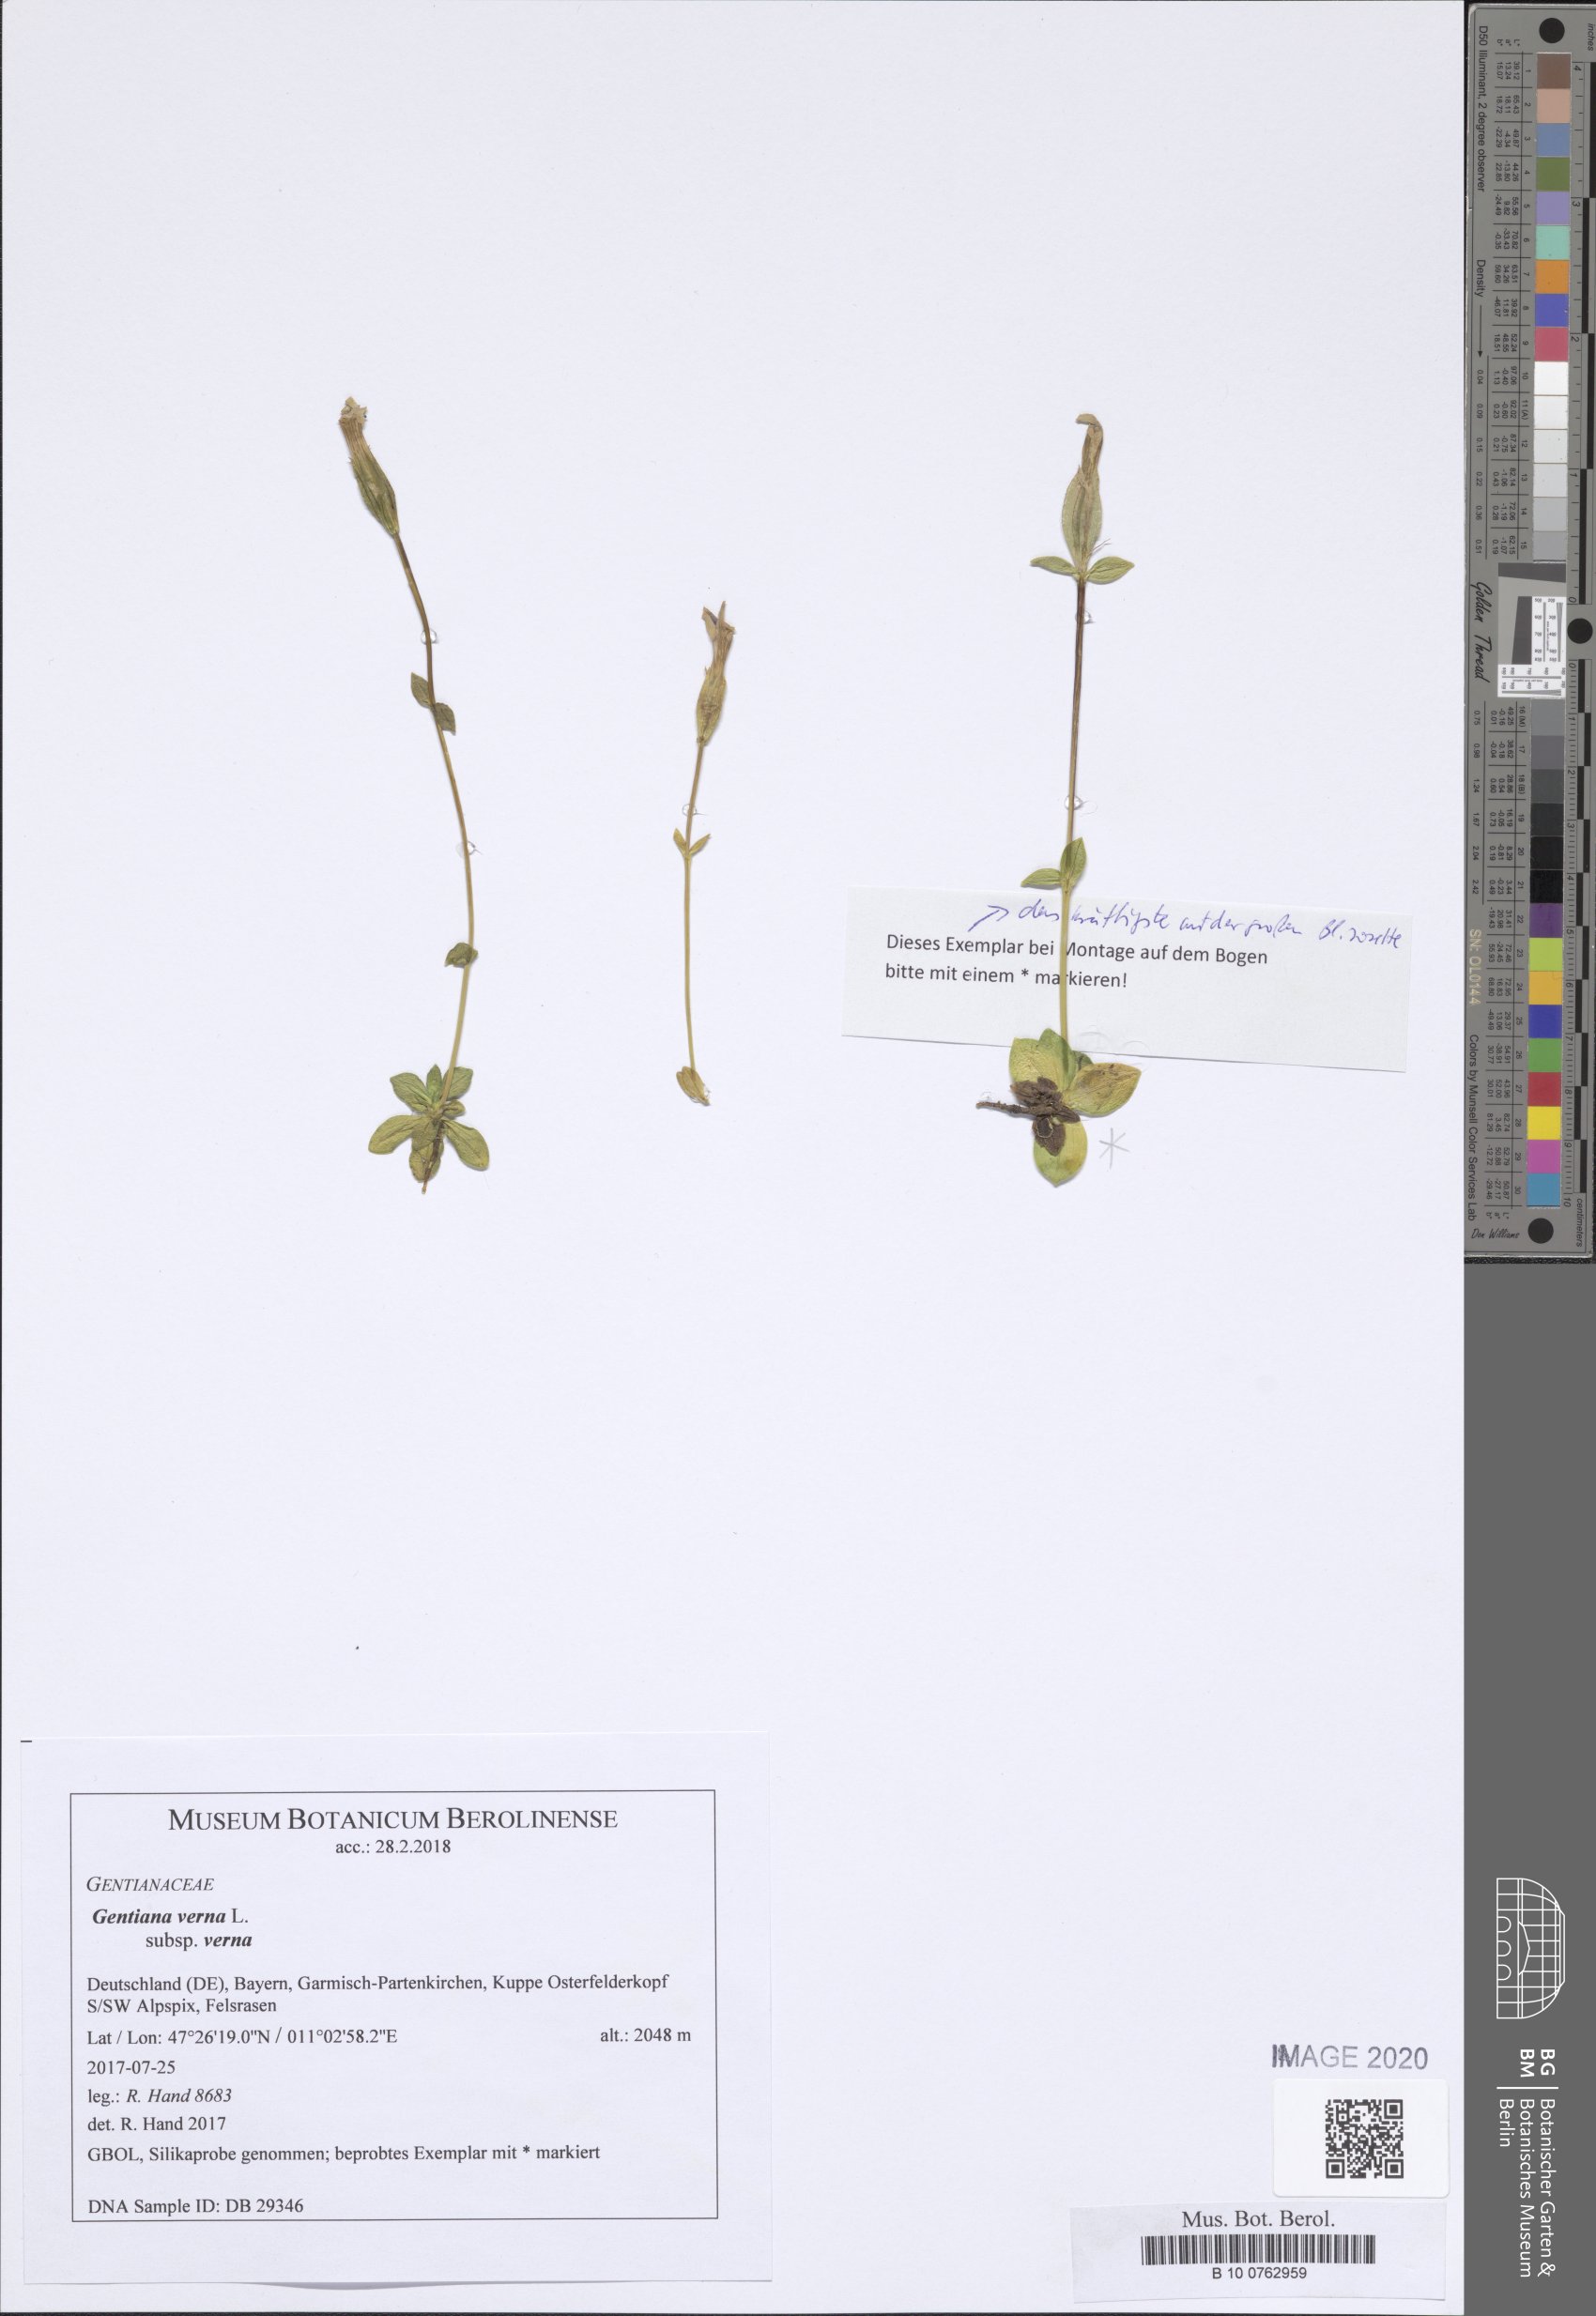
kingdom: Plantae
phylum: Tracheophyta
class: Magnoliopsida
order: Gentianales
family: Gentianaceae
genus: Gentiana
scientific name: Gentiana verna
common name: Spring gentian
